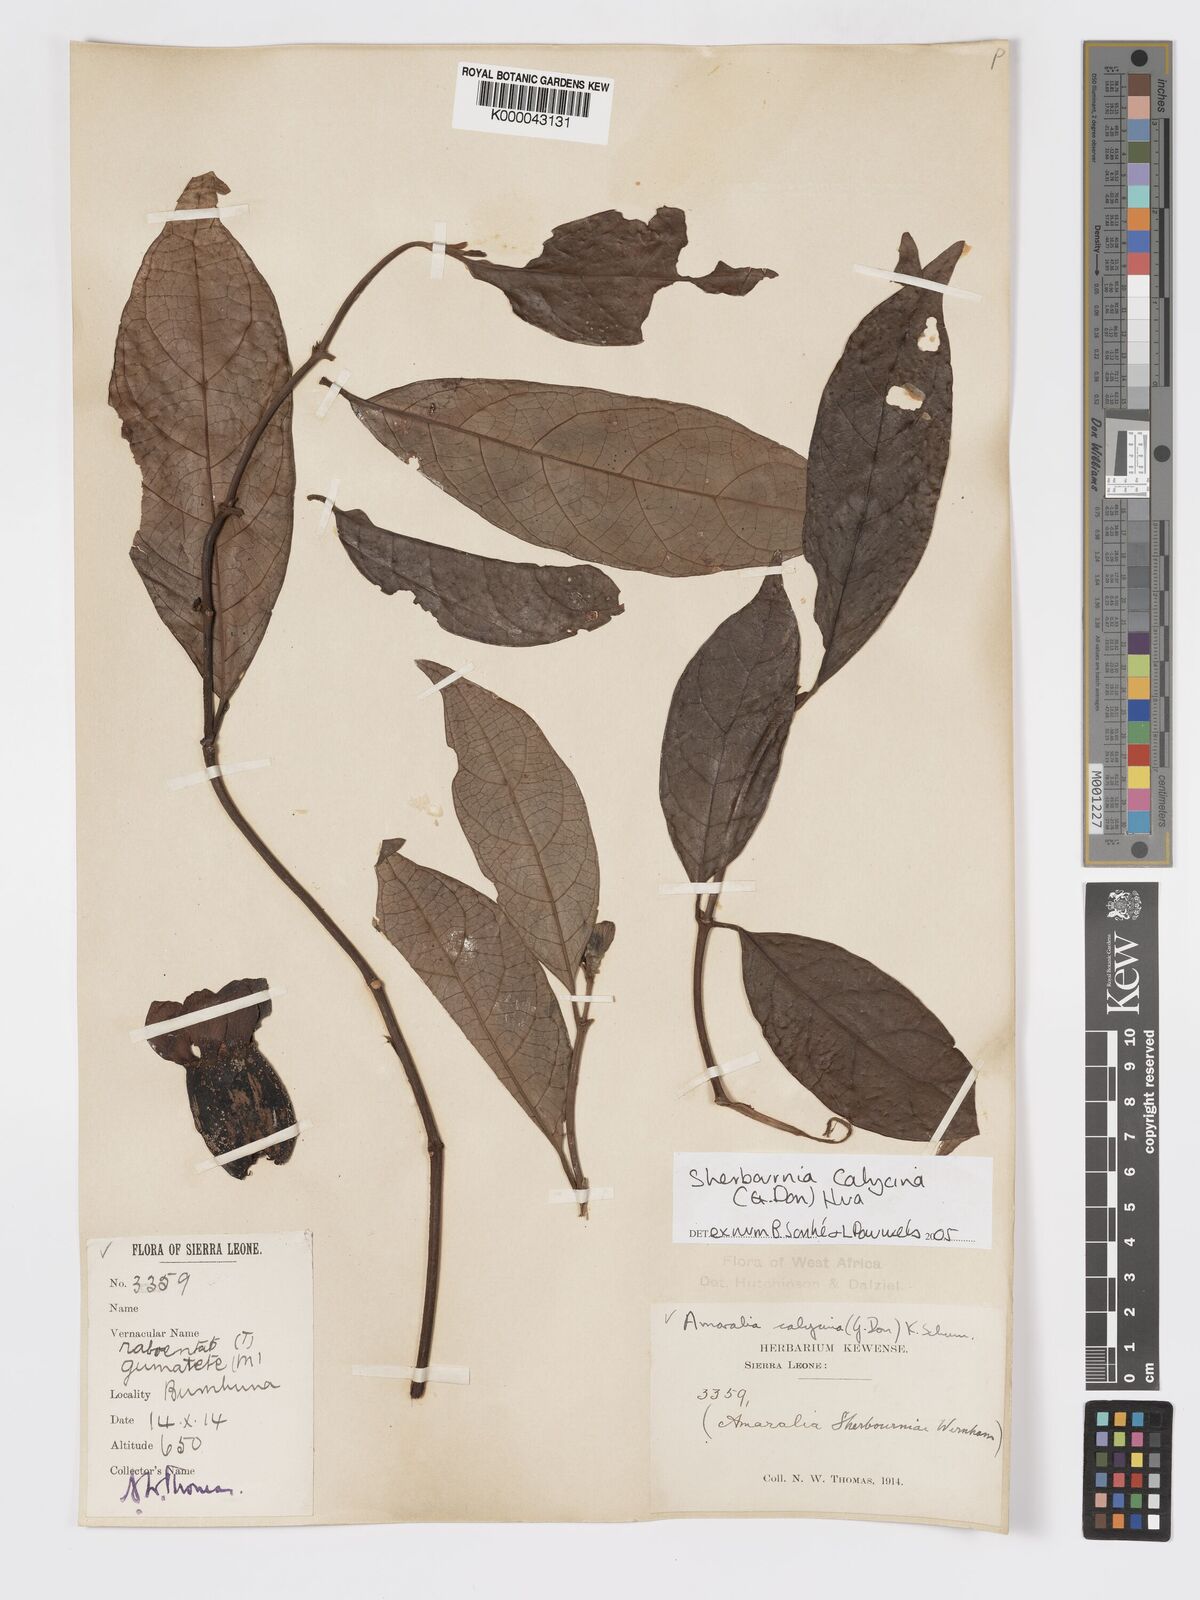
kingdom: Plantae
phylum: Tracheophyta
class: Magnoliopsida
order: Gentianales
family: Rubiaceae
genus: Sherbournia
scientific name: Sherbournia calycina
